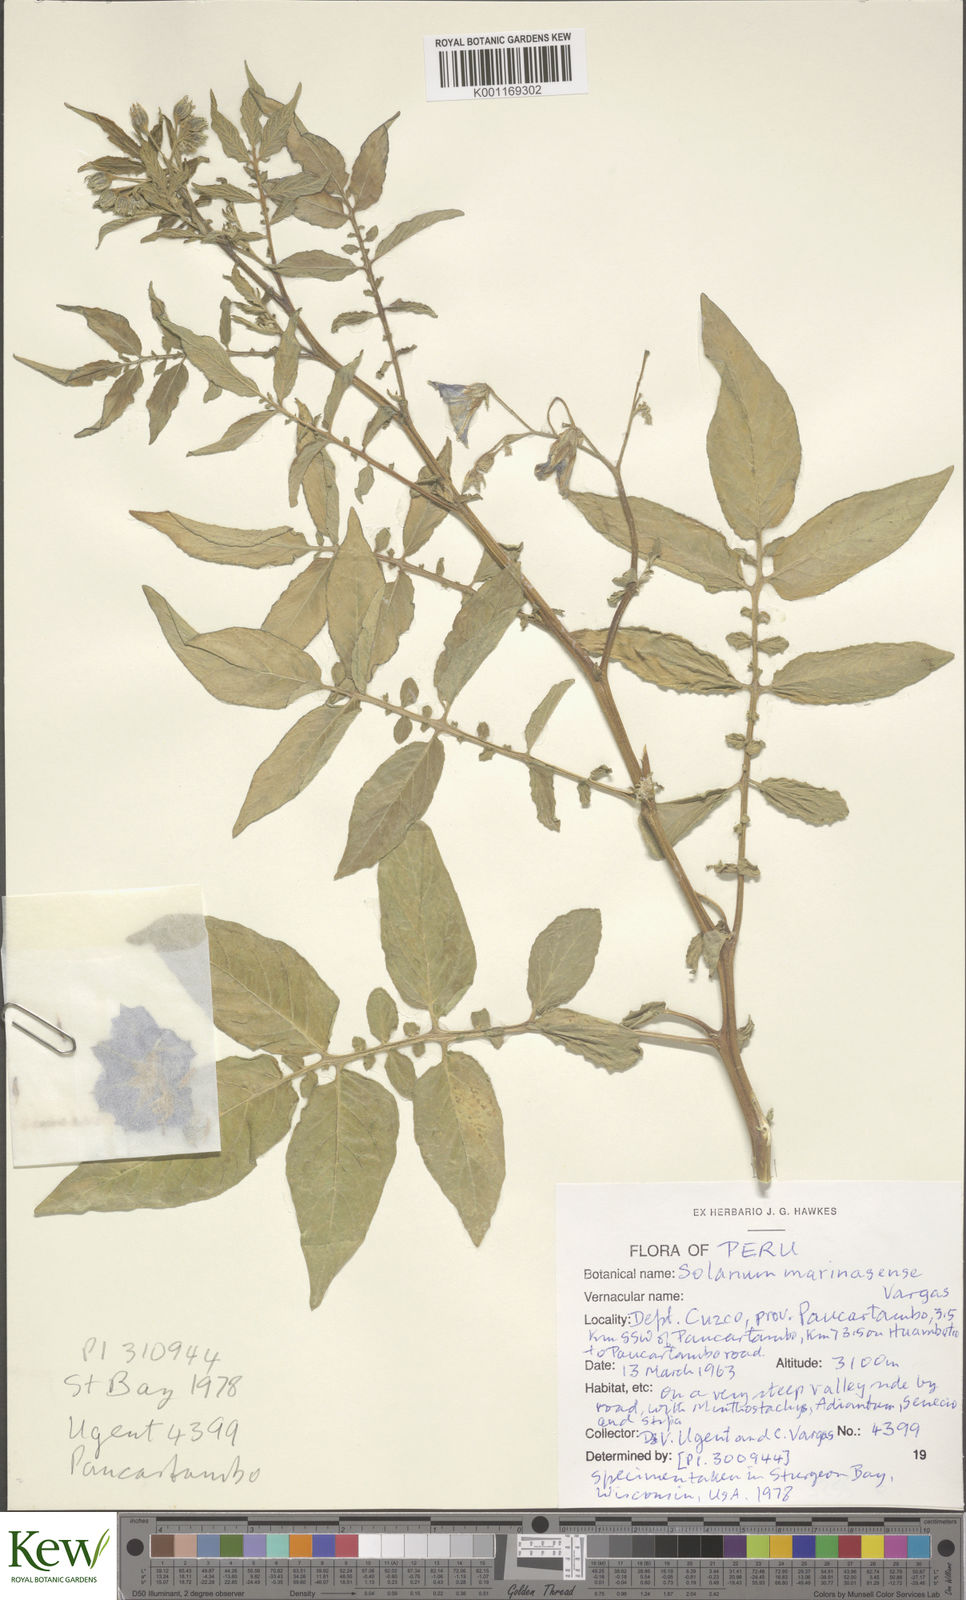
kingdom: Plantae
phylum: Tracheophyta
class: Magnoliopsida
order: Solanales
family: Solanaceae
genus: Solanum
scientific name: Solanum candolleanum
